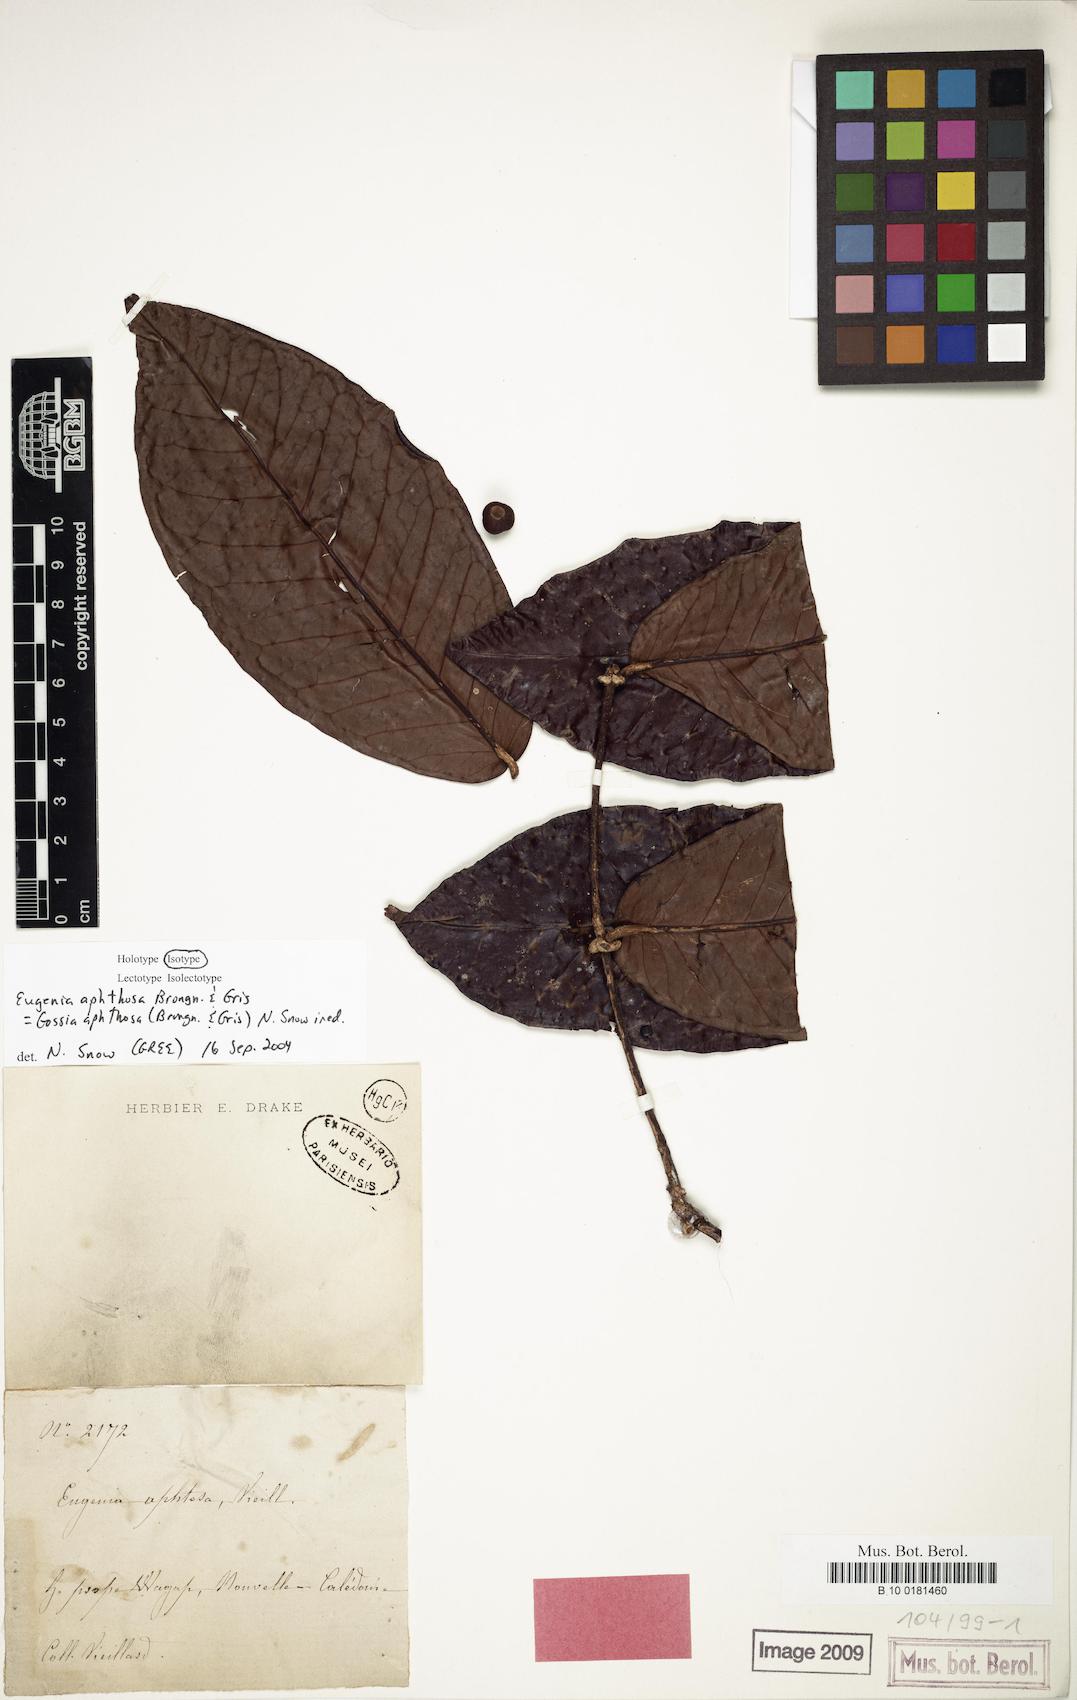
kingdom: Plantae
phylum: Tracheophyta
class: Magnoliopsida
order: Myrtales
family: Myrtaceae
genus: Gossia
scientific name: Gossia aphthosa
